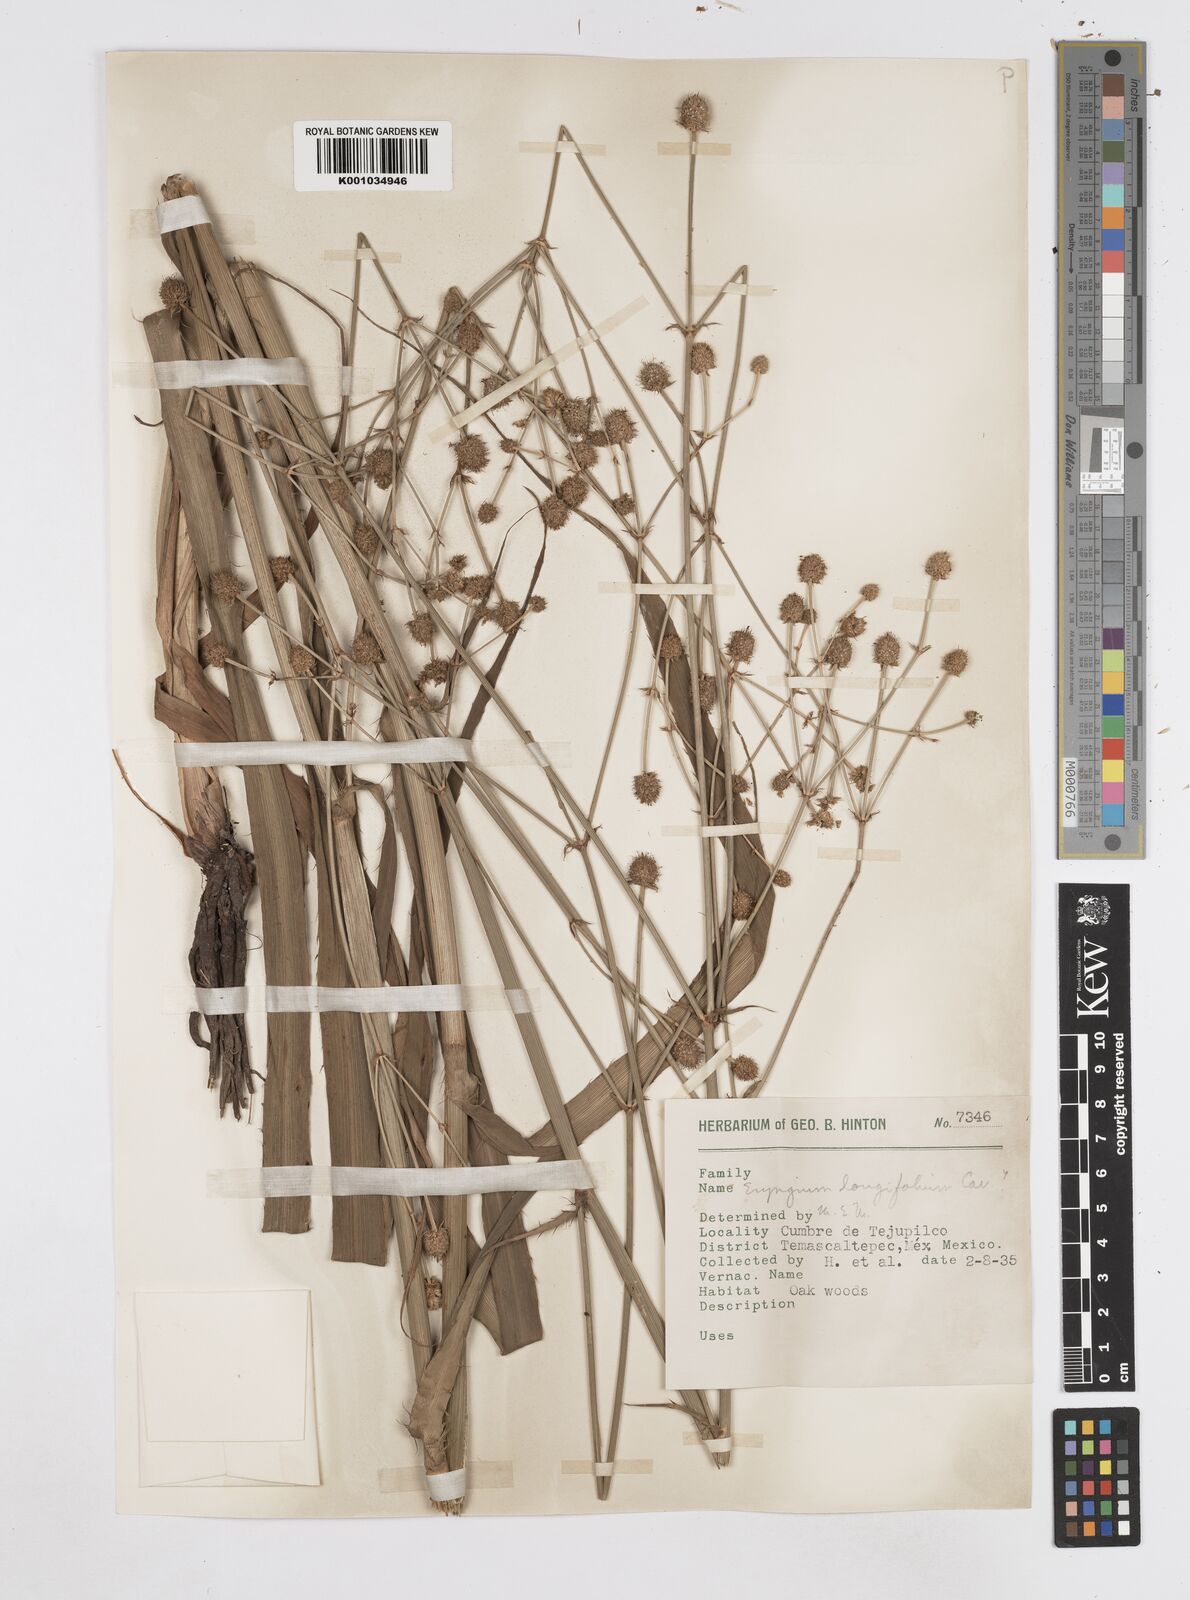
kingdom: Plantae
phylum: Tracheophyta
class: Magnoliopsida
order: Apiales
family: Apiaceae
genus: Eryngium
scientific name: Eryngium longifolium
